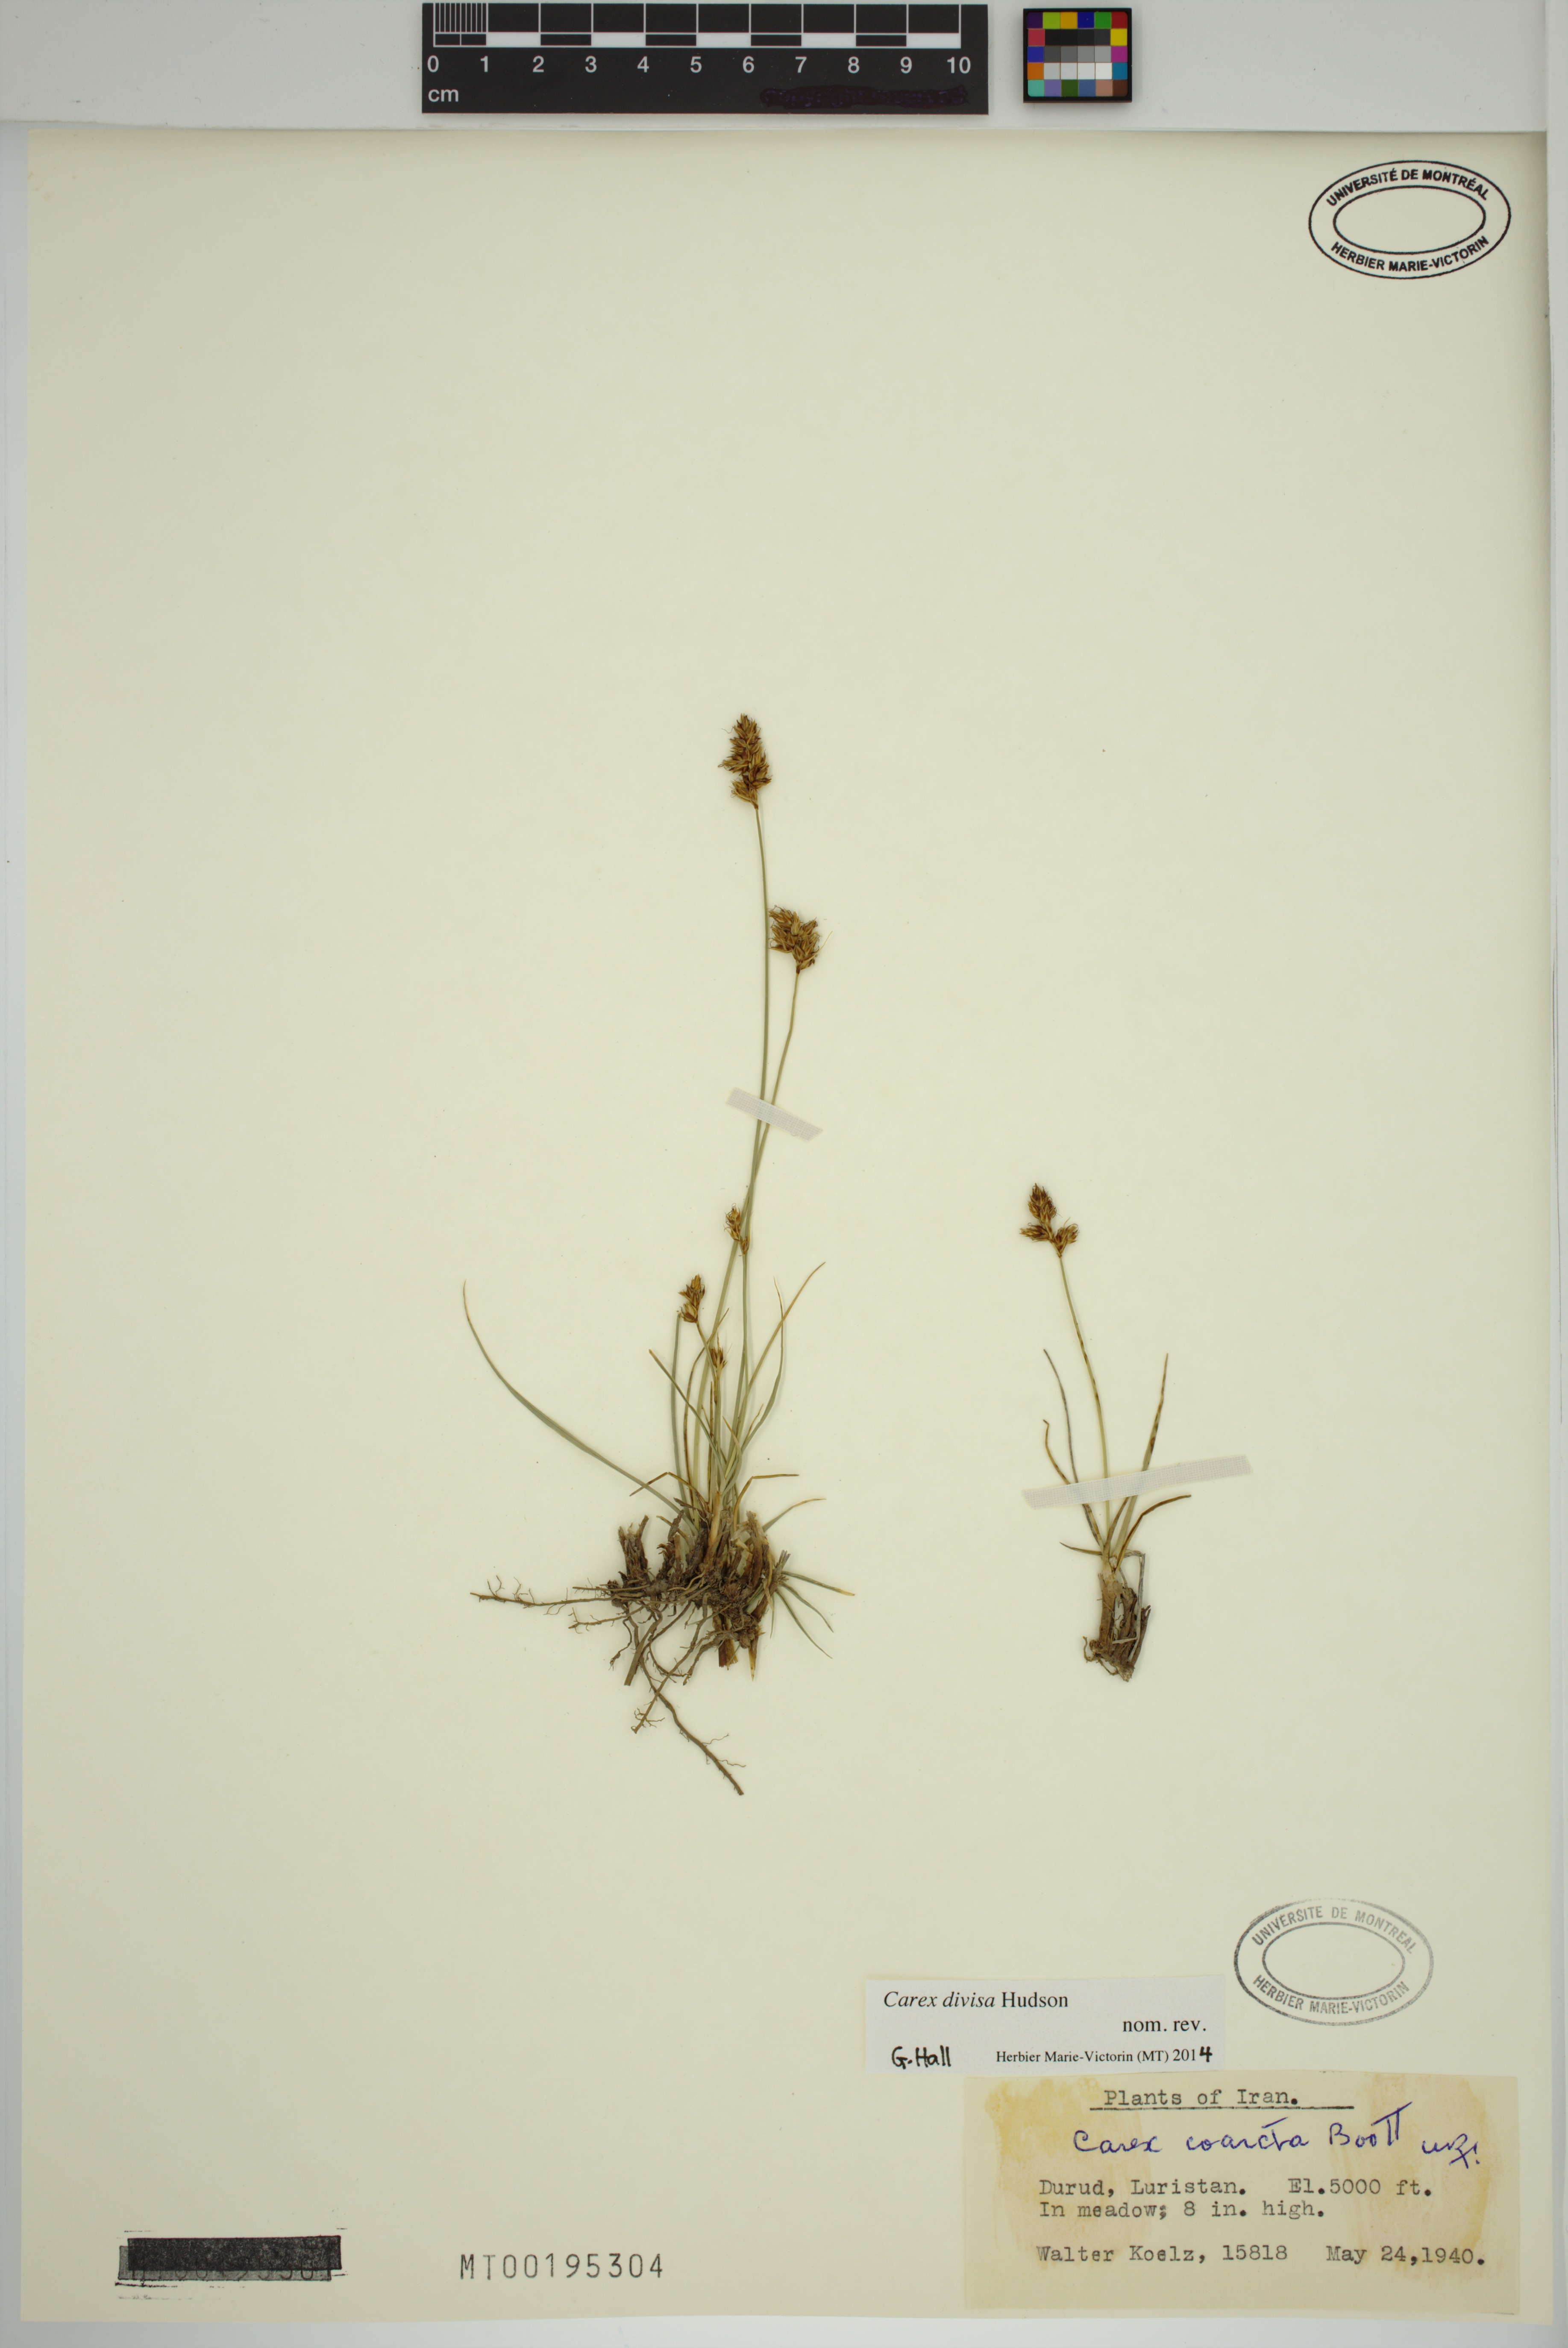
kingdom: Plantae
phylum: Tracheophyta
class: Liliopsida
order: Poales
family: Cyperaceae
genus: Carex
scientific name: Carex divisa
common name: Divided sedge
